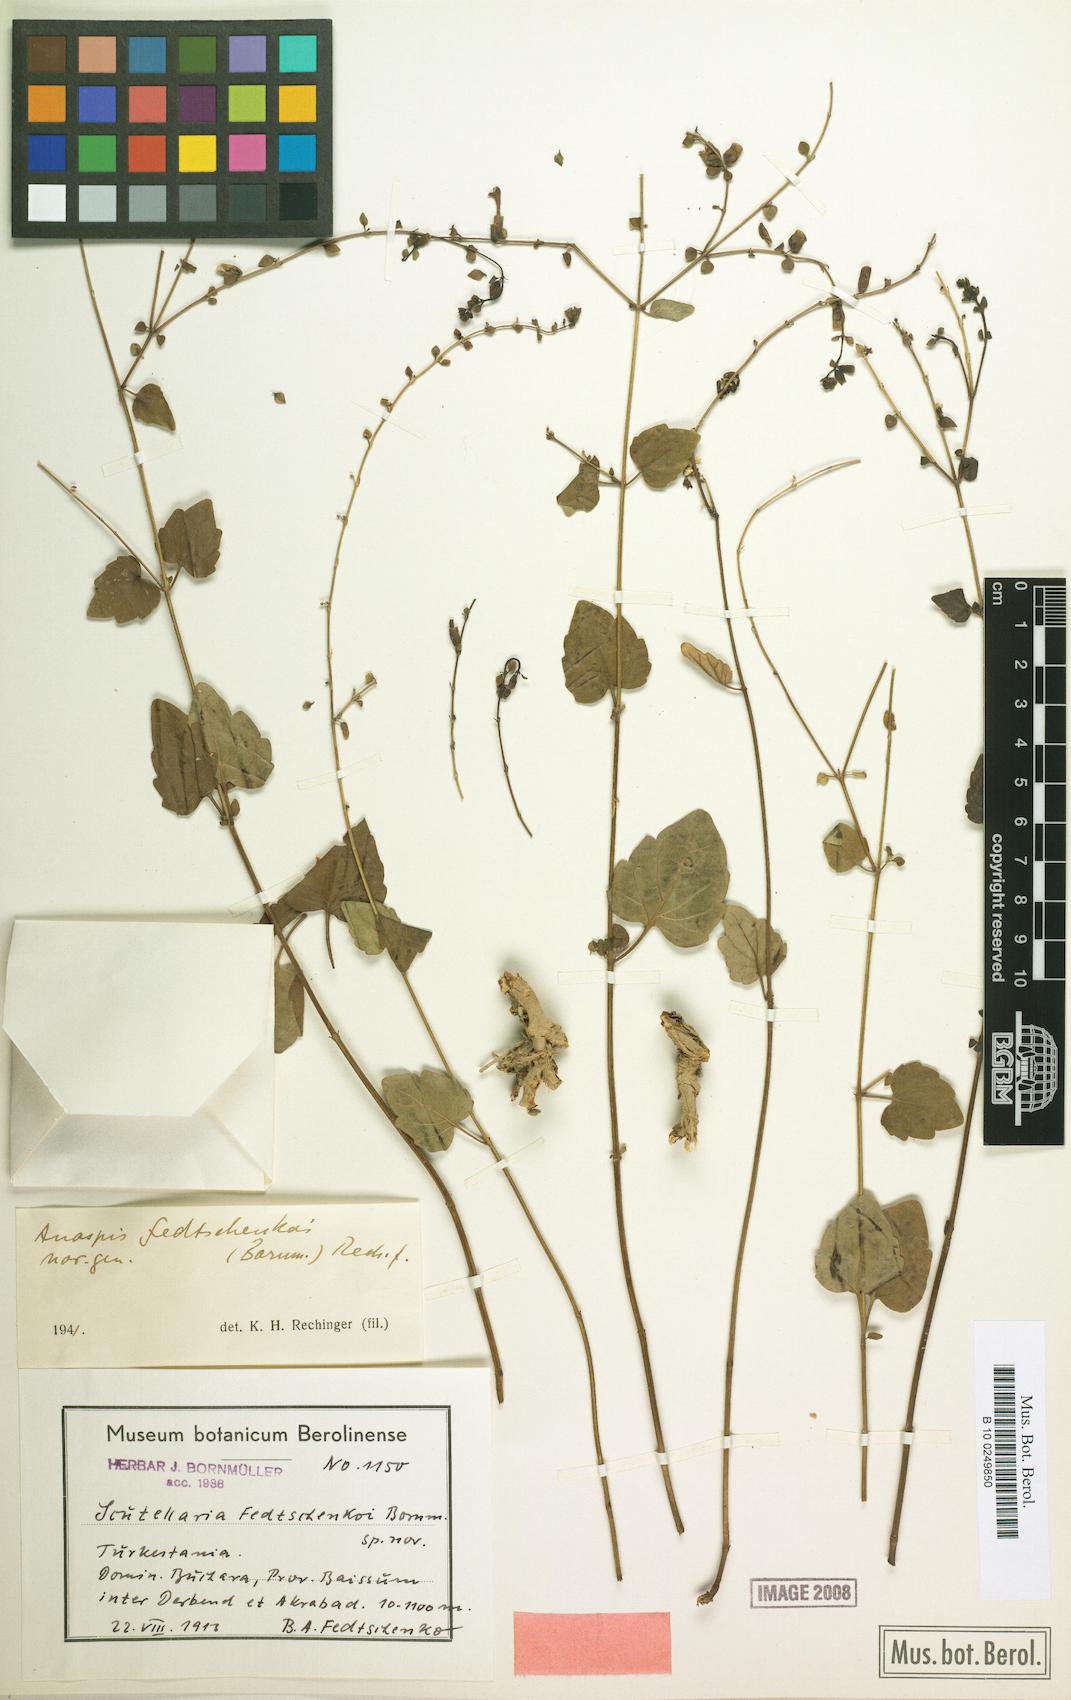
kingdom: Plantae
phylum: Tracheophyta
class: Magnoliopsida
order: Lamiales
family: Lamiaceae
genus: Scutellaria
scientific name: Scutellaria fedtschenkoi
